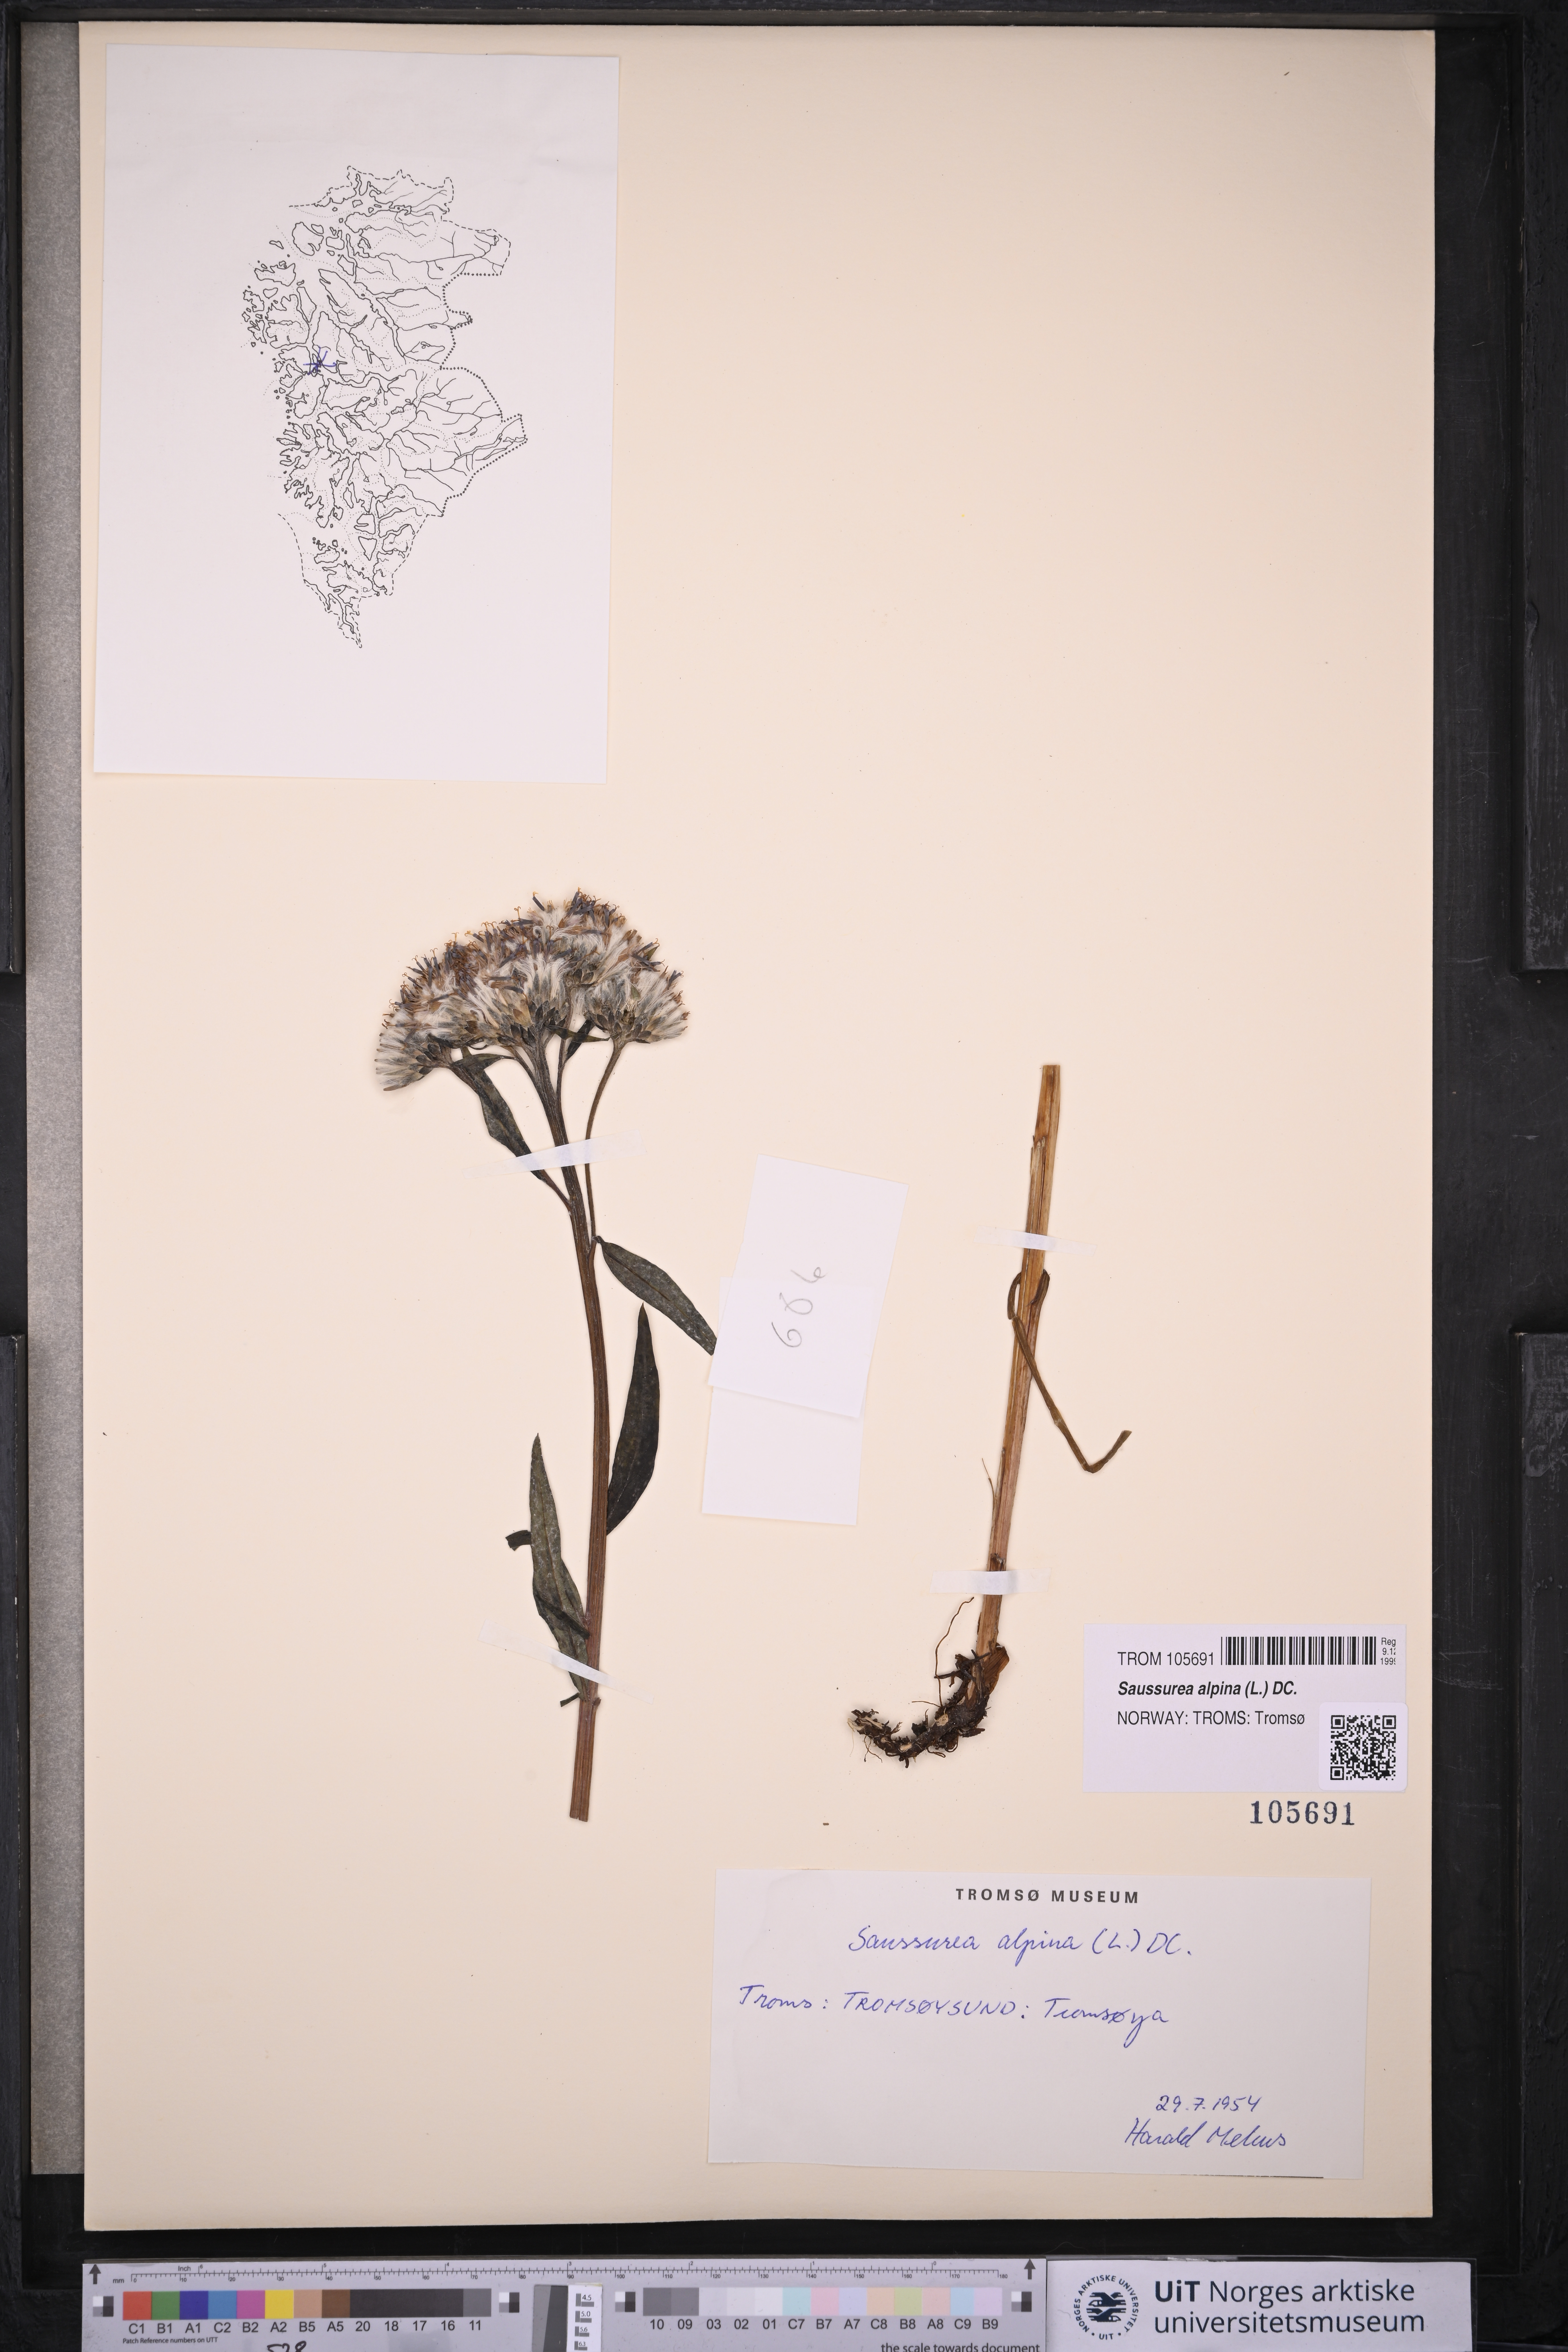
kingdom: Plantae
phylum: Tracheophyta
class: Magnoliopsida
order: Asterales
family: Asteraceae
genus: Saussurea
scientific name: Saussurea alpina
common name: Alpine saw-wort
